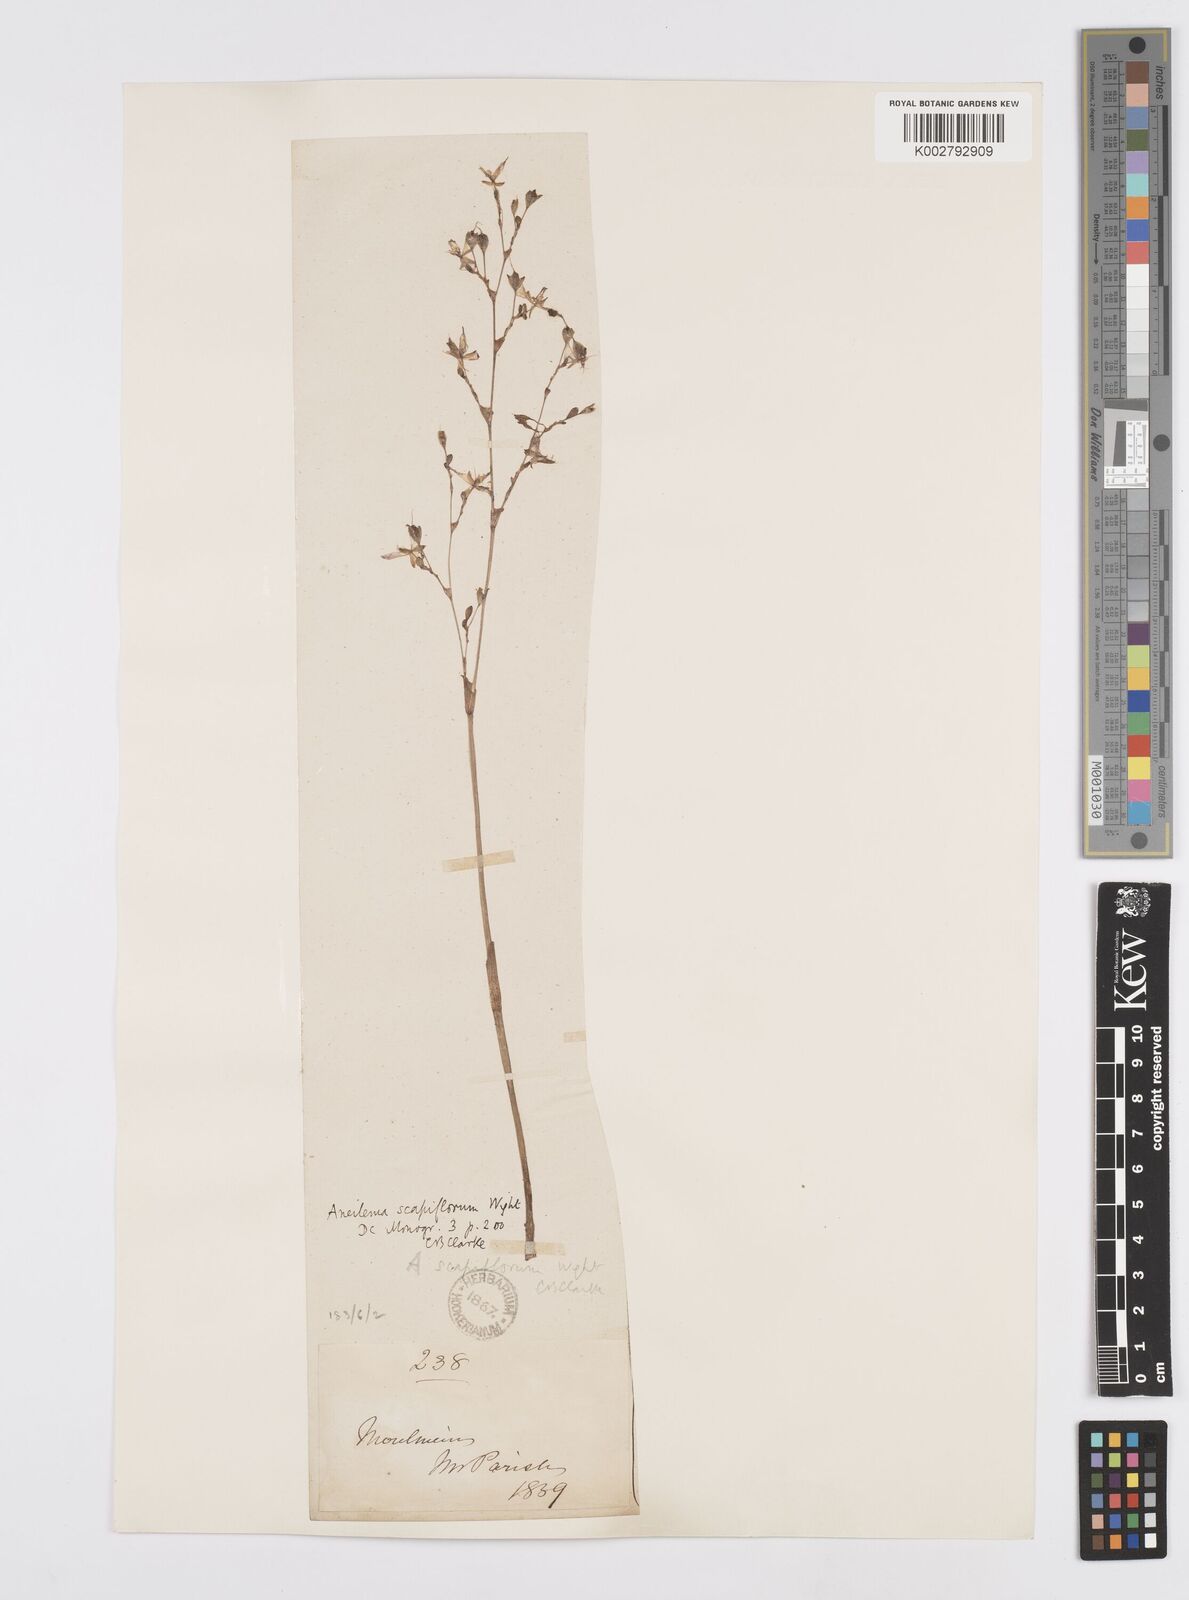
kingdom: Plantae
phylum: Tracheophyta
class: Liliopsida
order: Commelinales
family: Commelinaceae
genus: Murdannia
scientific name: Murdannia edulis
